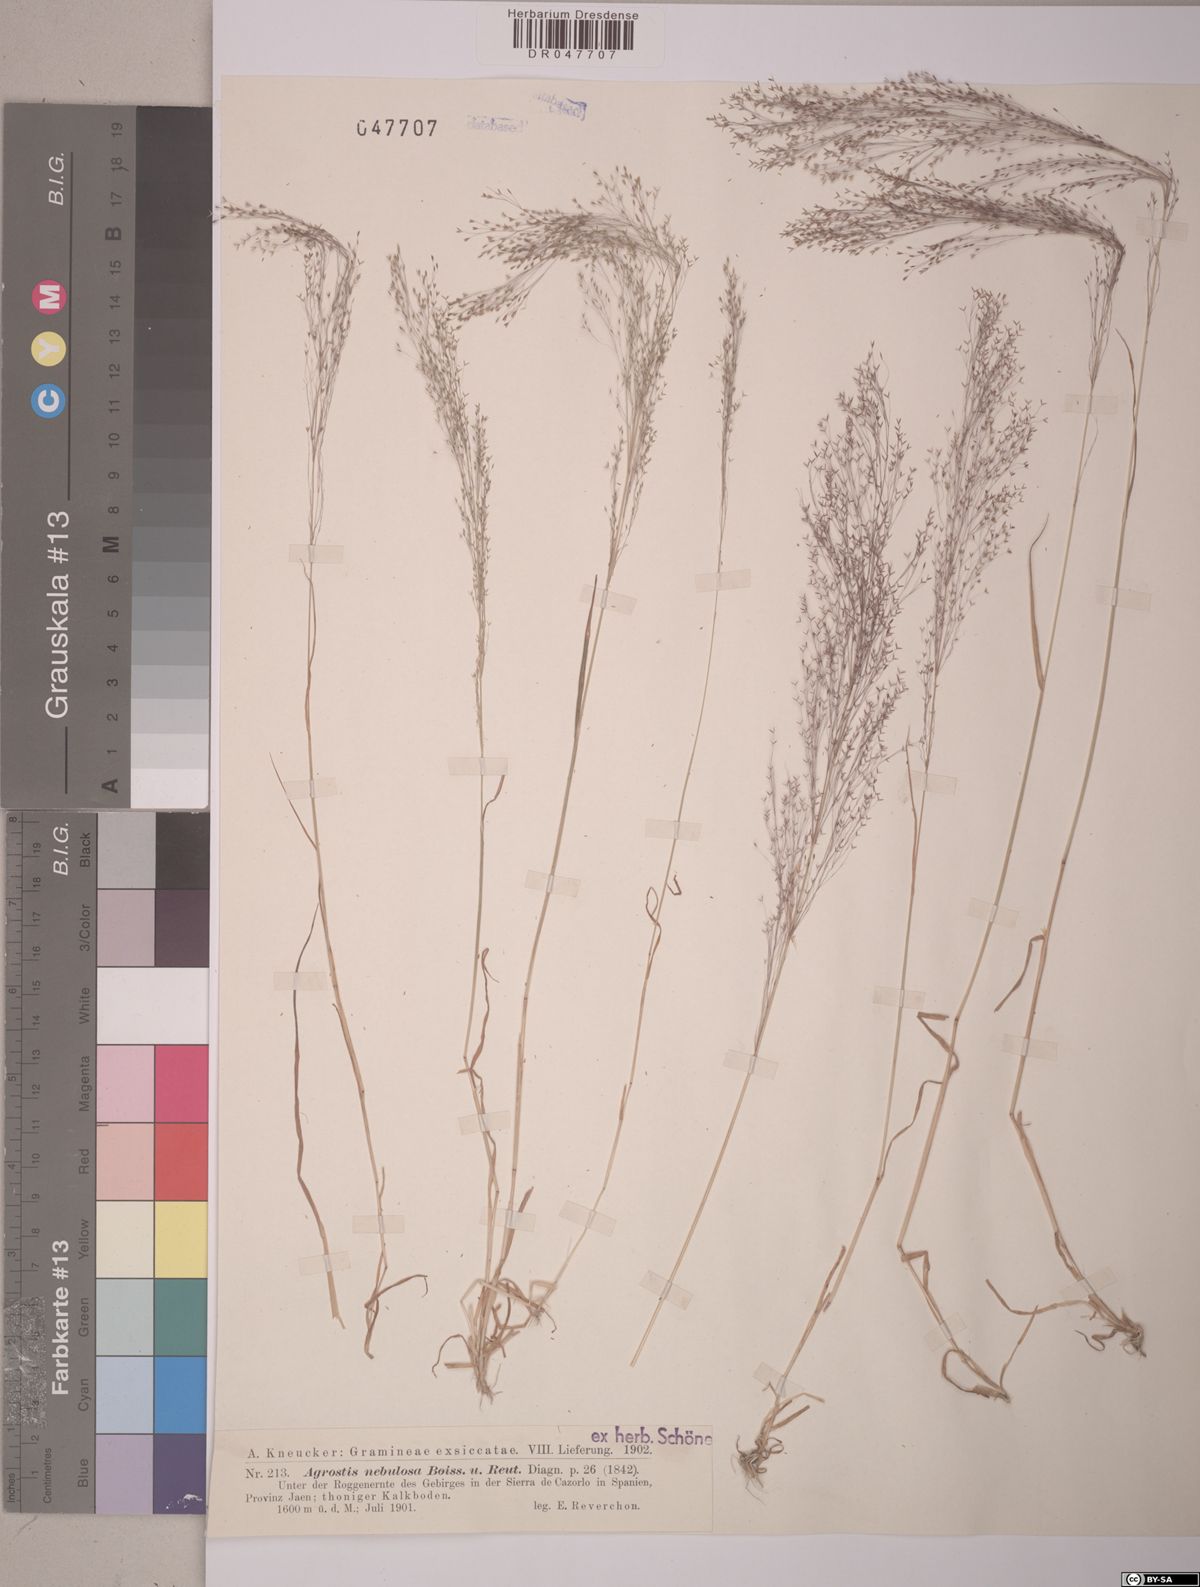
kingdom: Plantae
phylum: Tracheophyta
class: Liliopsida
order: Poales
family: Poaceae
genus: Agrostis
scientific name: Agrostis nebulosa
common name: Cloud grass
